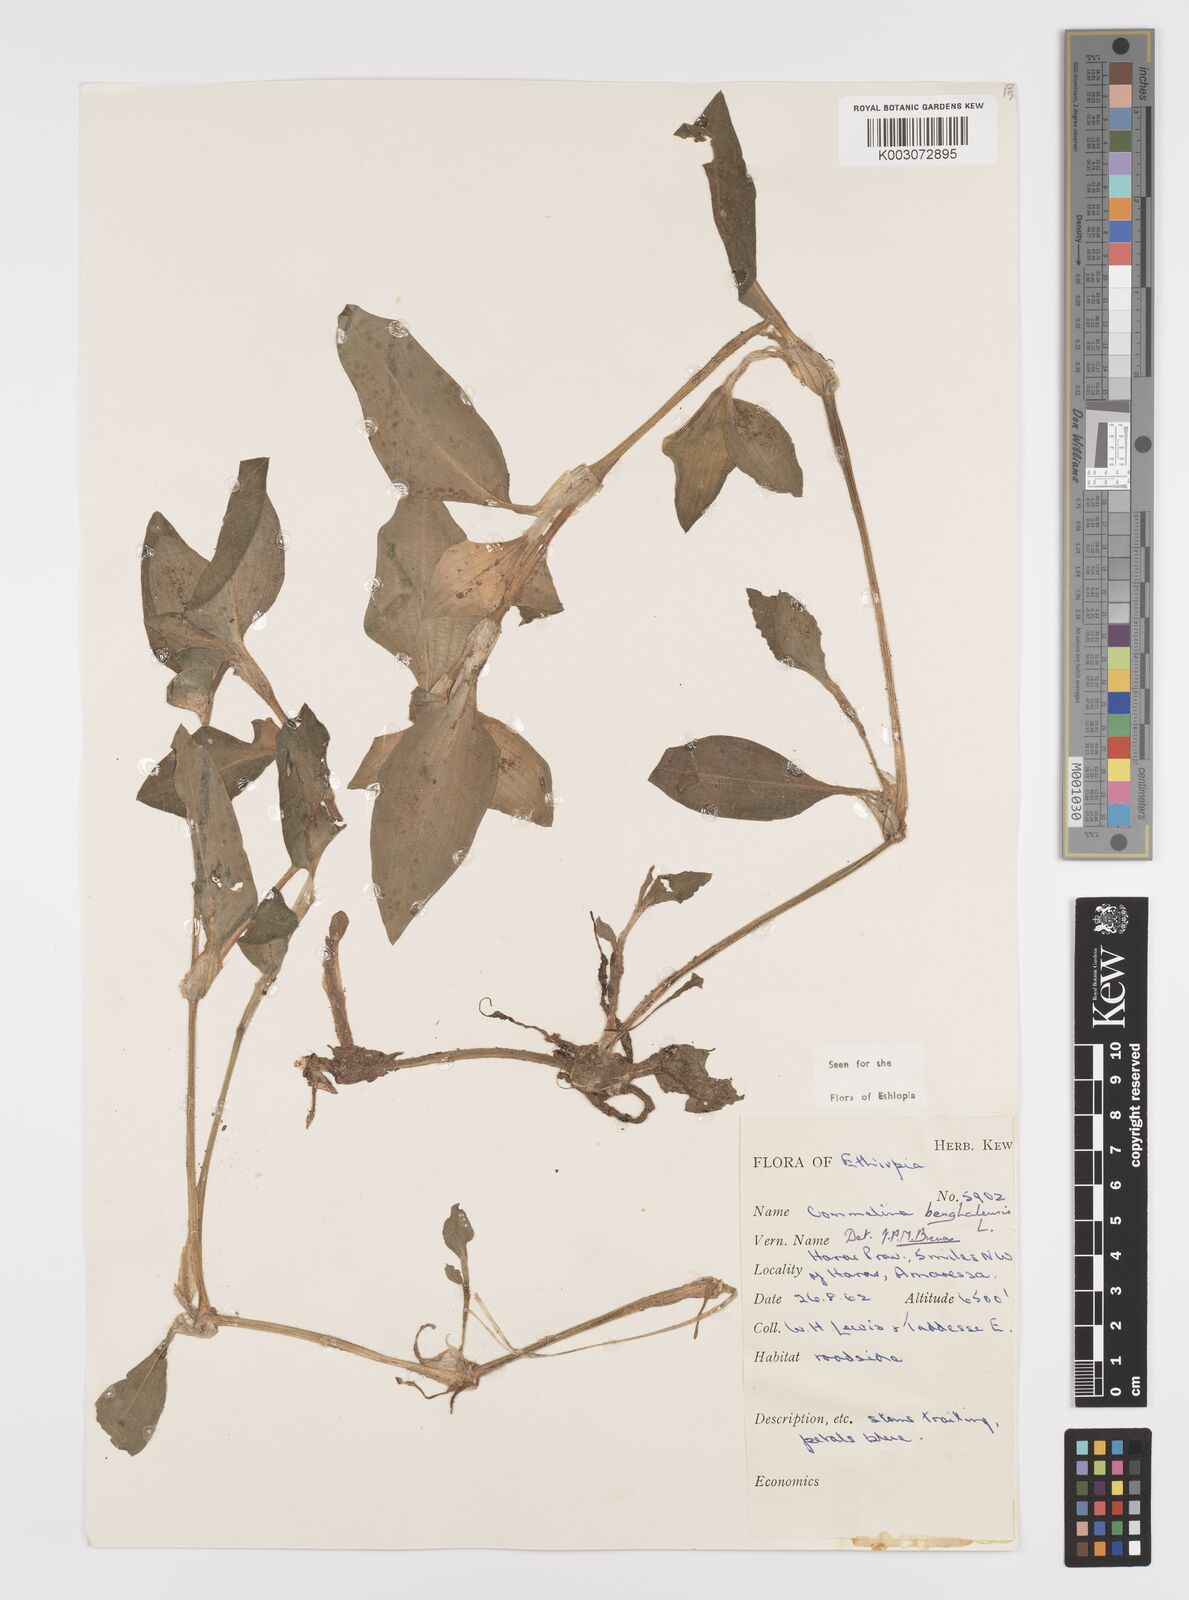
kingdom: Plantae
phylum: Tracheophyta
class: Liliopsida
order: Commelinales
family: Commelinaceae
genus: Commelina
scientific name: Commelina benghalensis
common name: Jio
